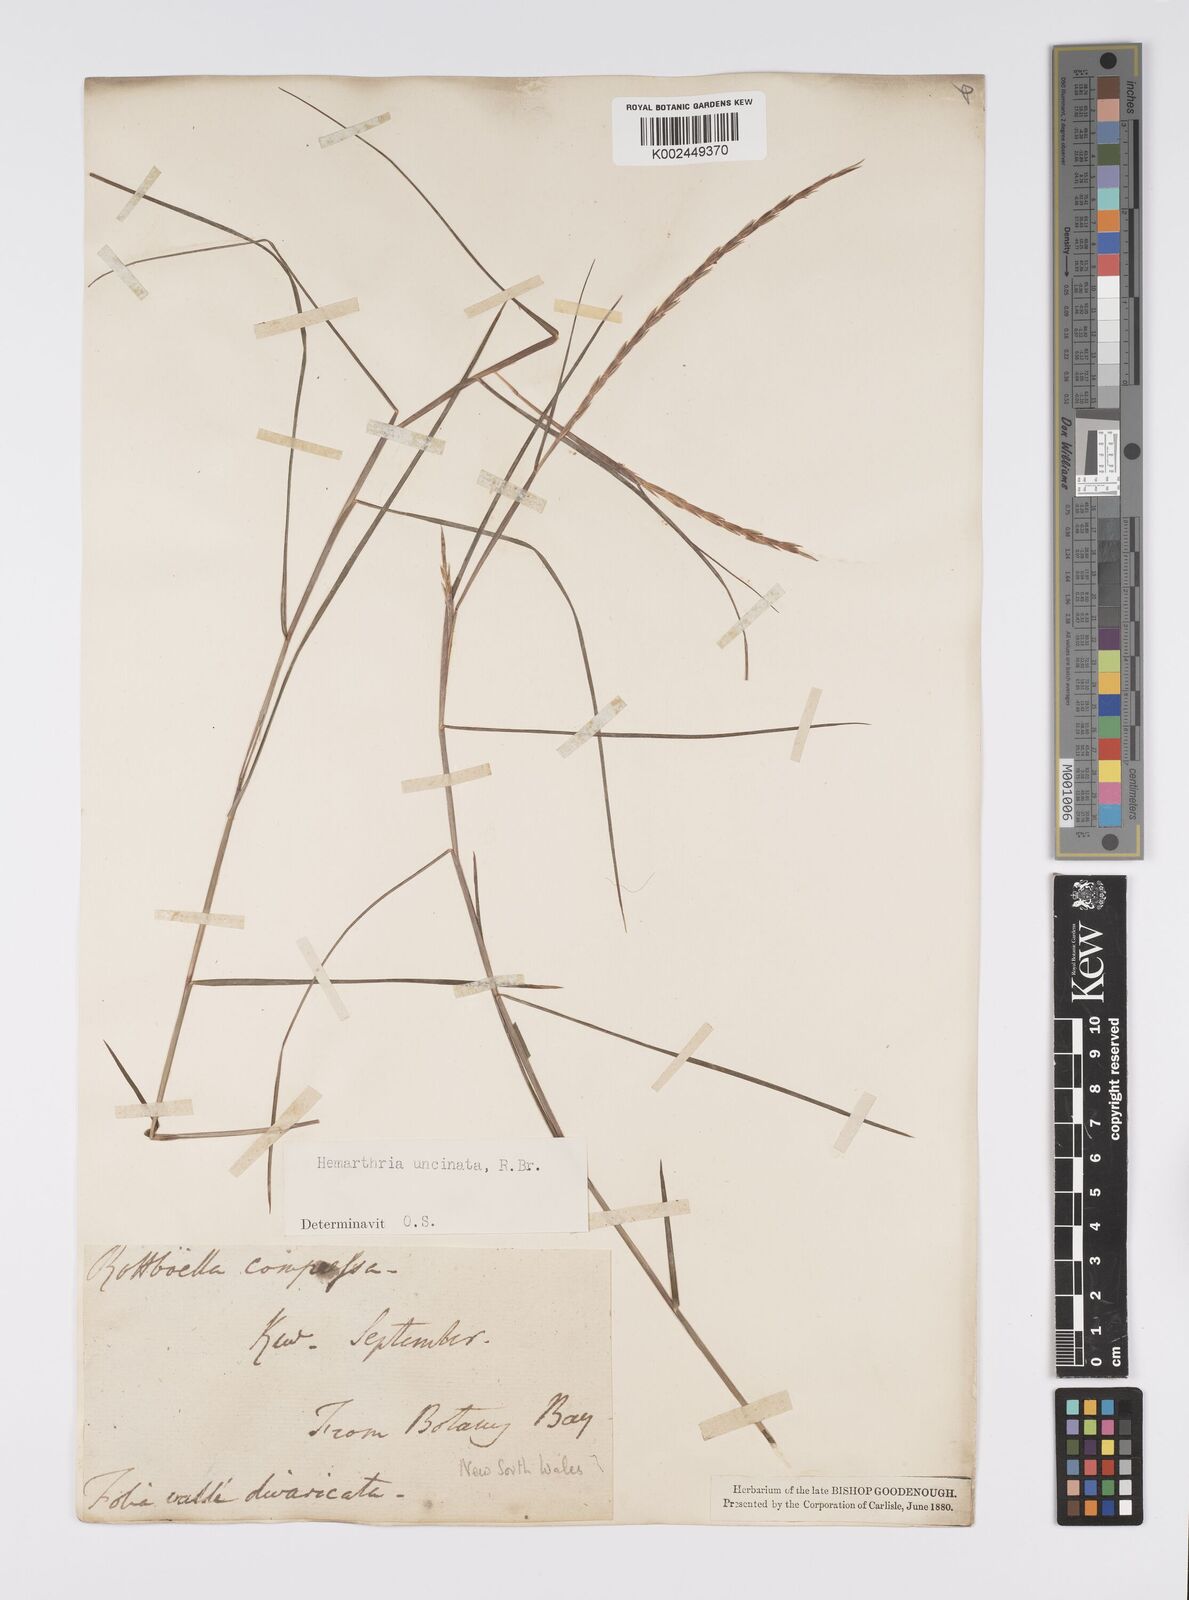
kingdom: Plantae
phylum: Tracheophyta
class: Liliopsida
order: Poales
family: Poaceae
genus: Hemarthria
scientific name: Hemarthria uncinata
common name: Matgrass
